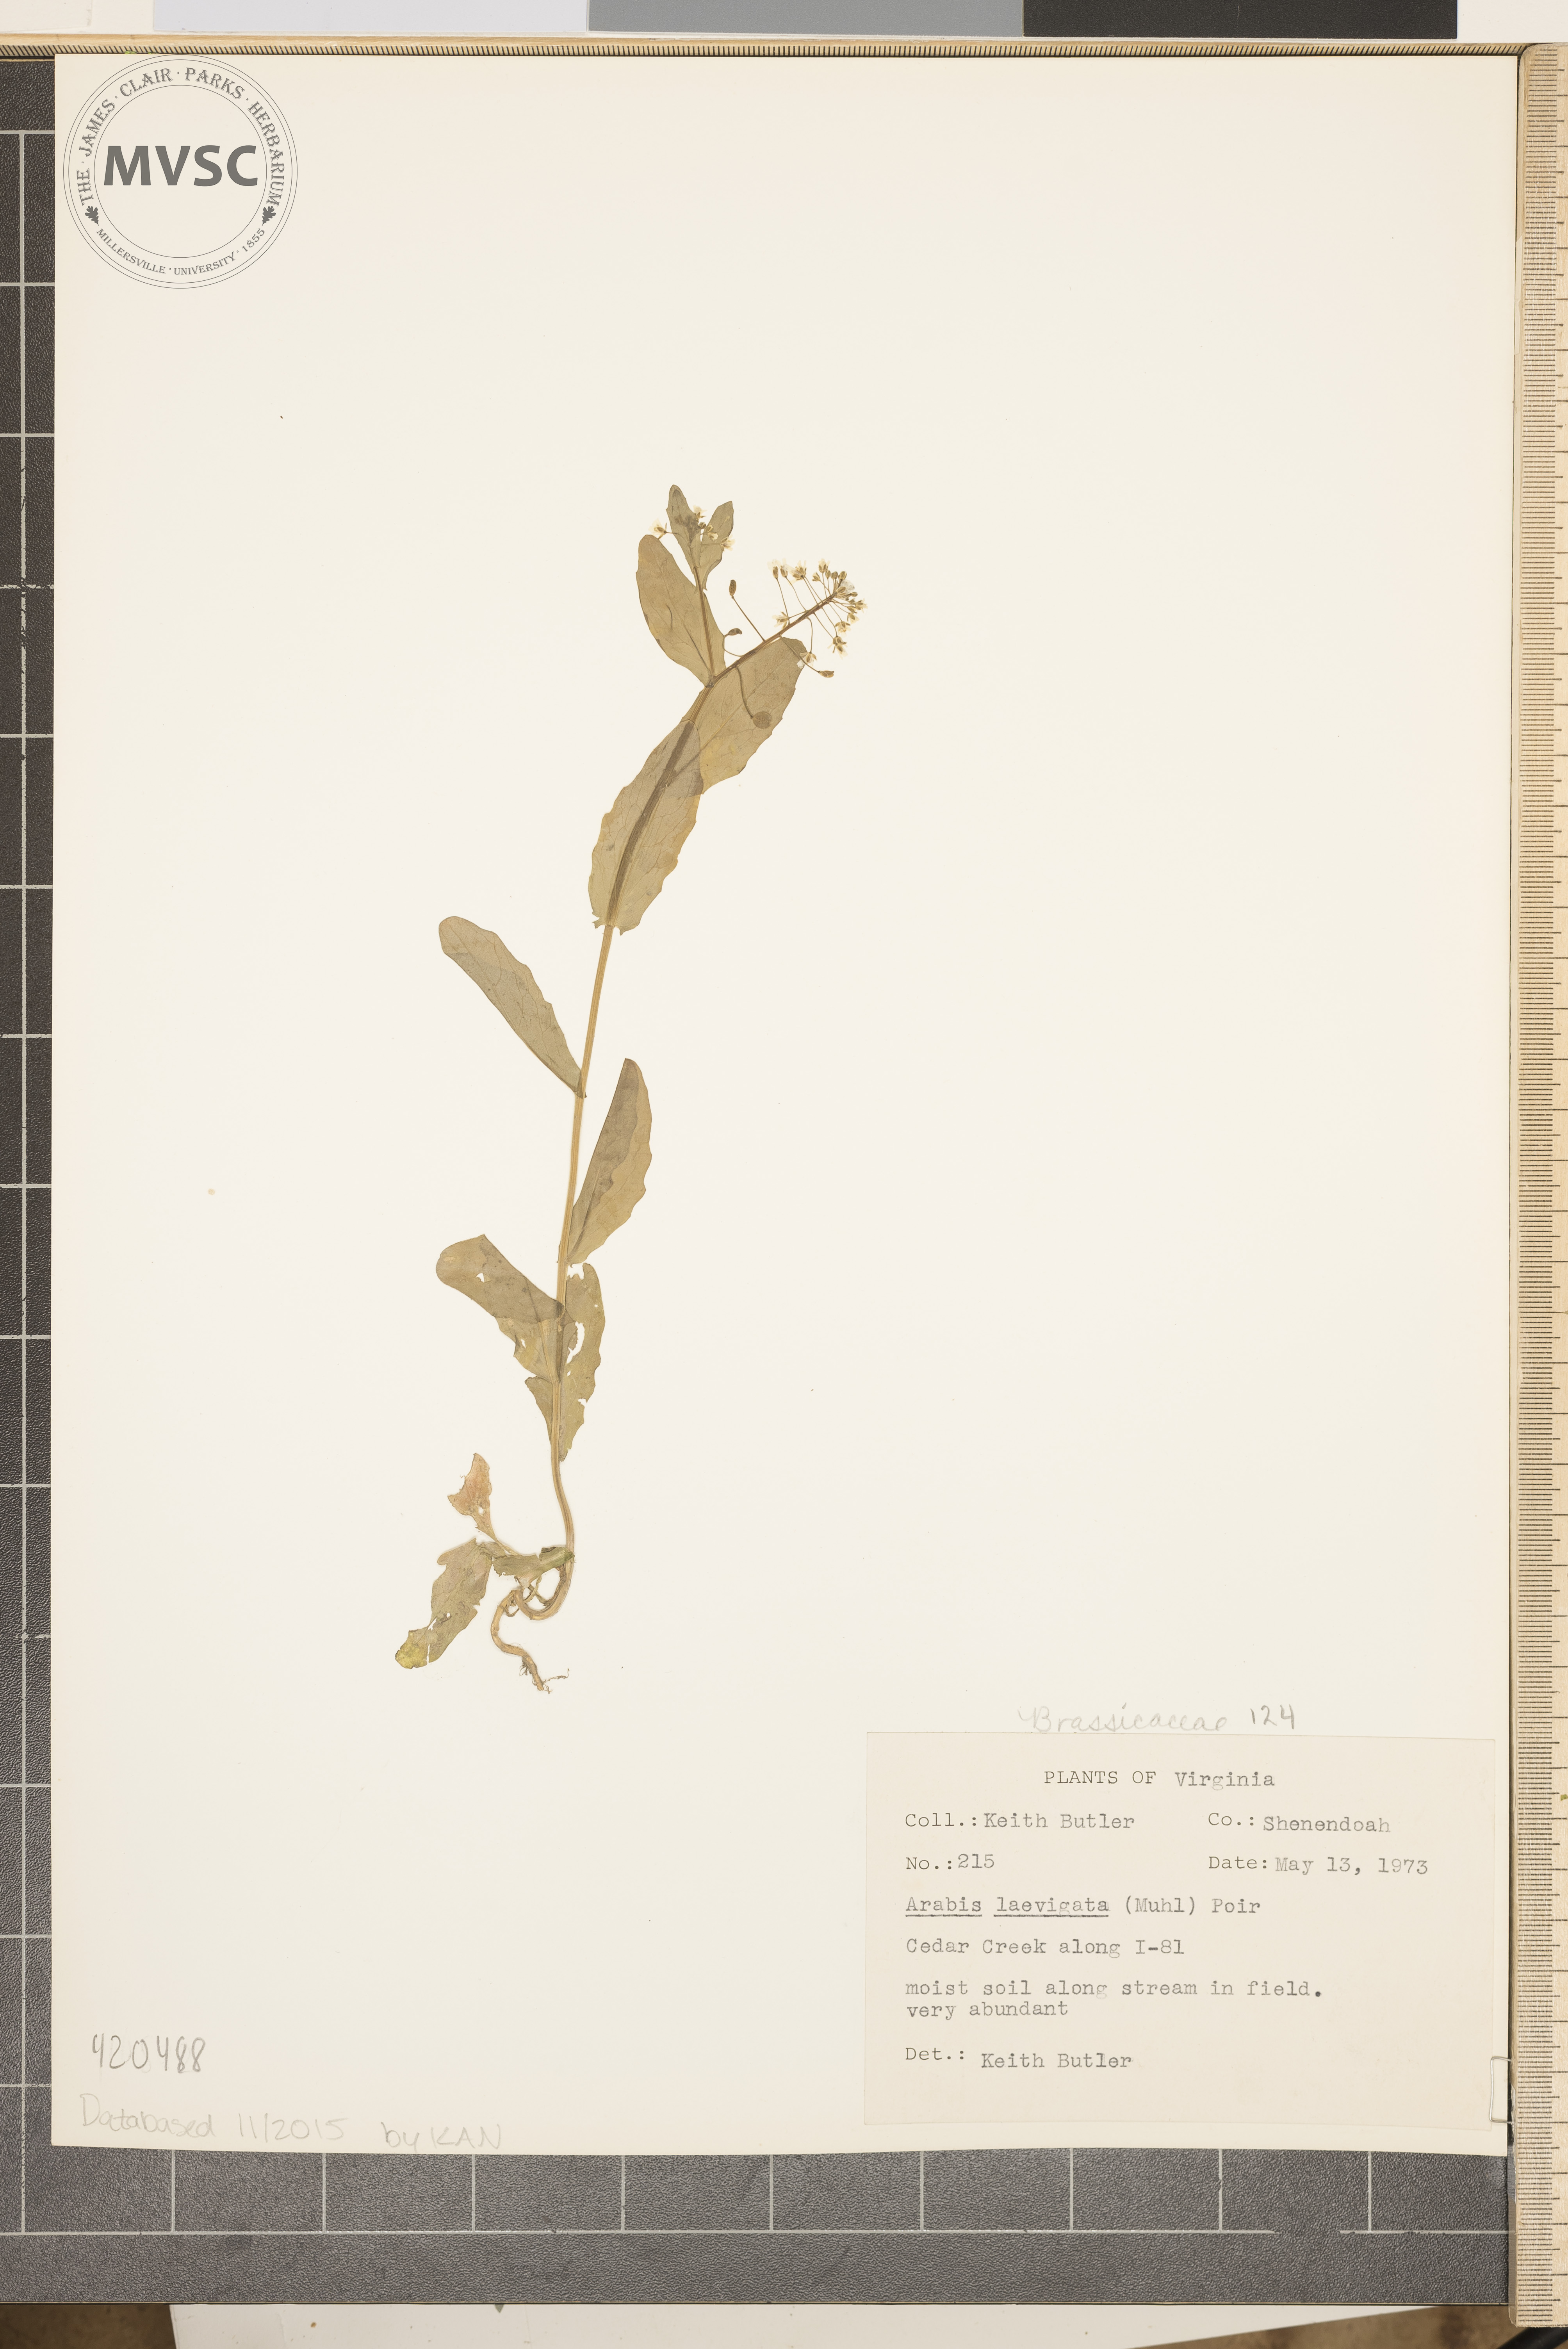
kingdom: Plantae
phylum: Tracheophyta
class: Magnoliopsida
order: Brassicales
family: Brassicaceae
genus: Borodinia
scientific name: Borodinia laevigata
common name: Smooth rockcress
